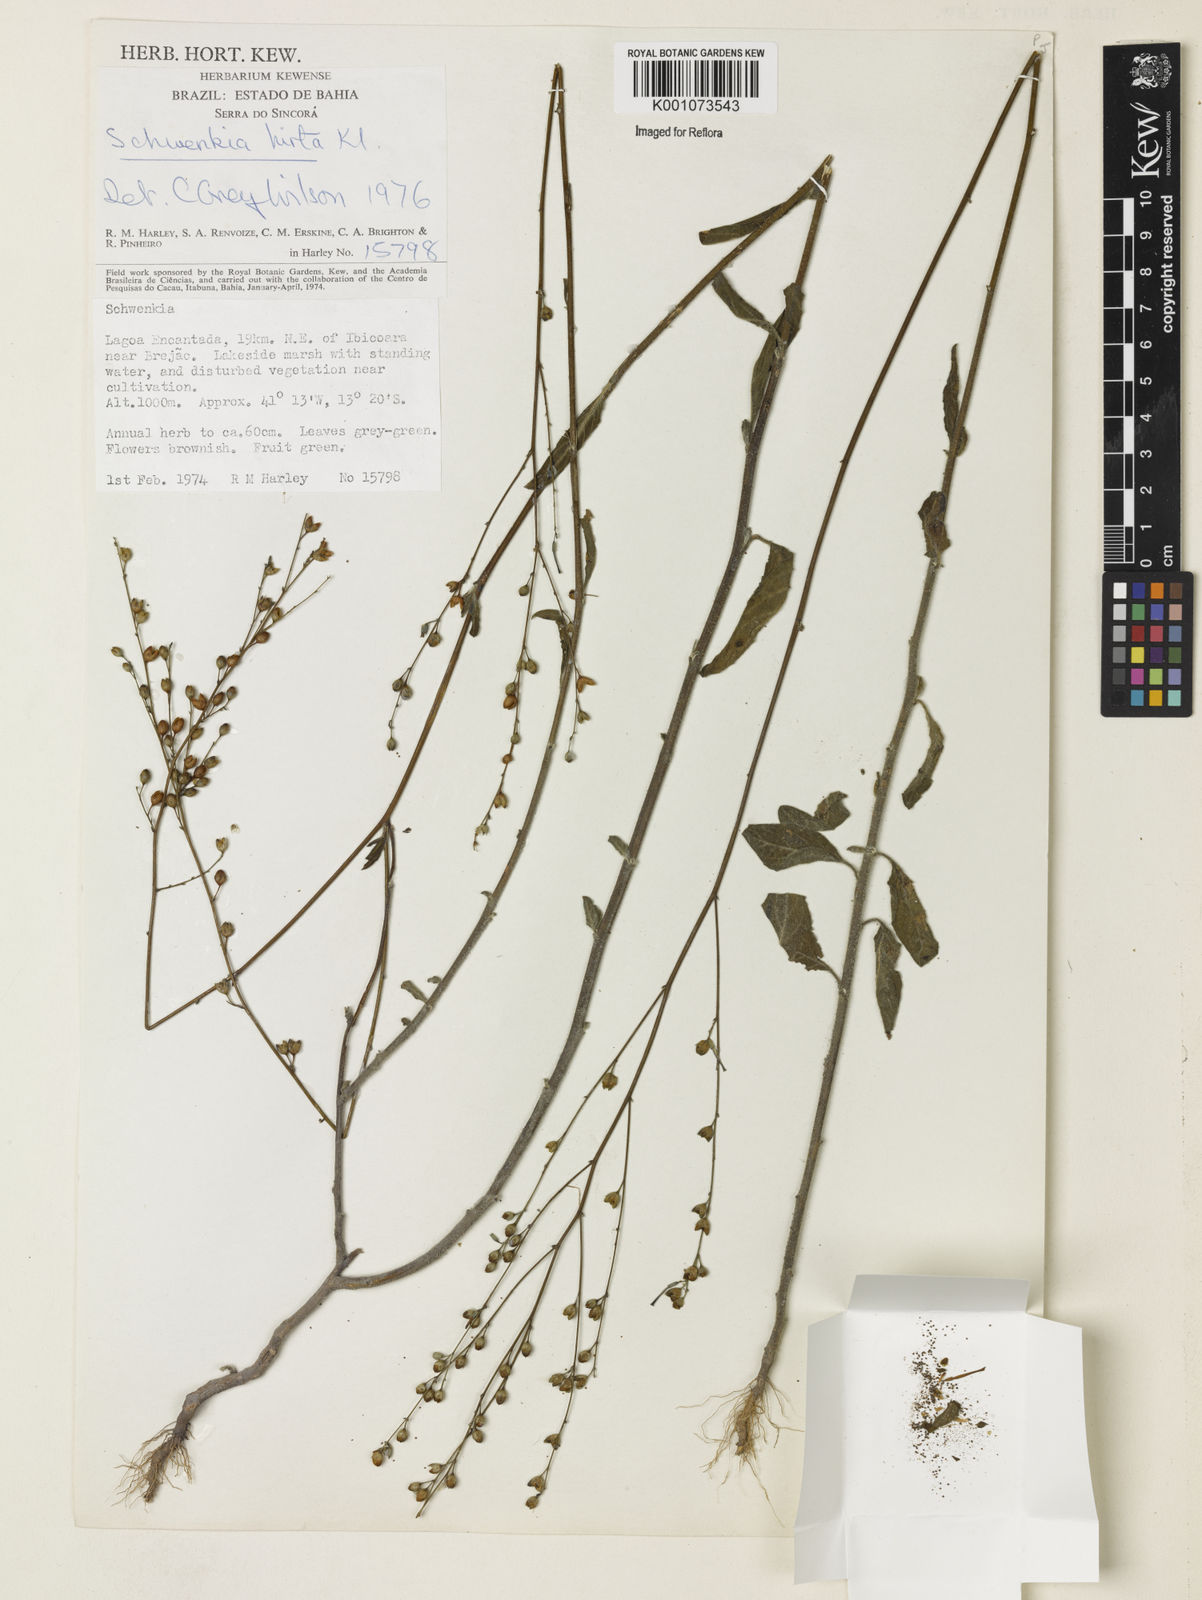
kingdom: Plantae
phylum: Tracheophyta
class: Magnoliopsida
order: Solanales
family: Solanaceae
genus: Schwenckia
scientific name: Schwenckia americana
